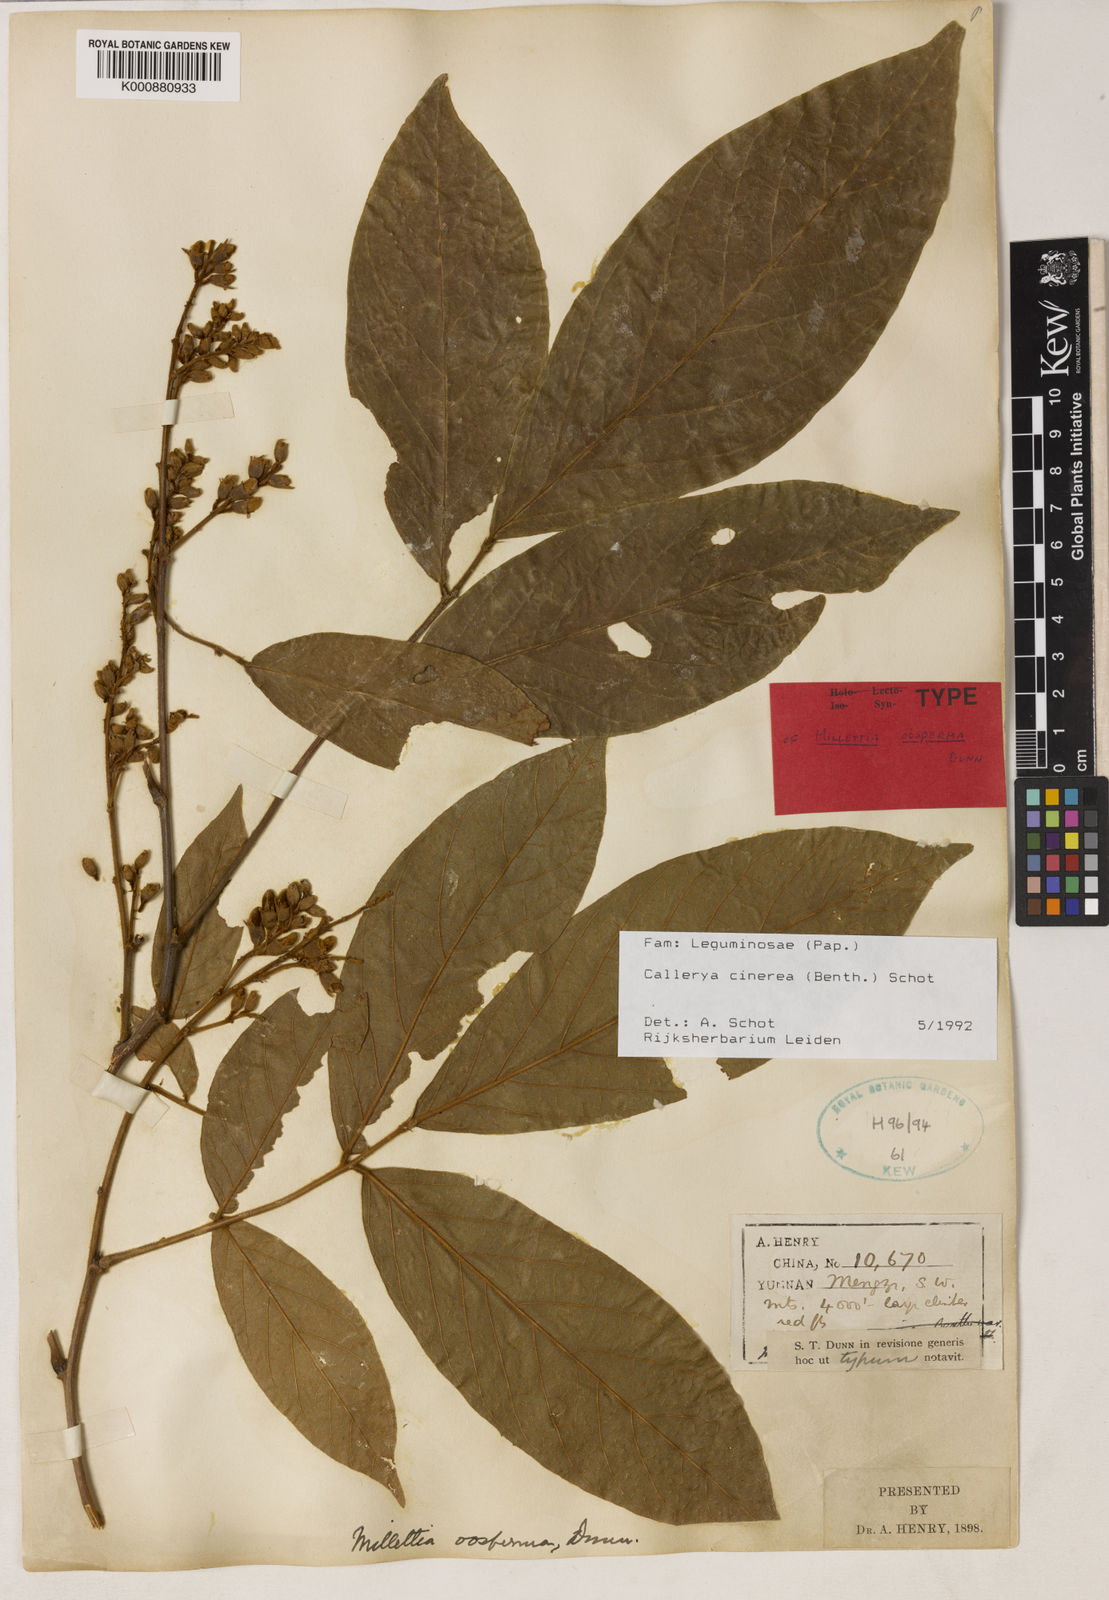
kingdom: Plantae
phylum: Tracheophyta
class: Magnoliopsida
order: Fabales
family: Fabaceae
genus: Callerya
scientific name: Callerya cinerea
